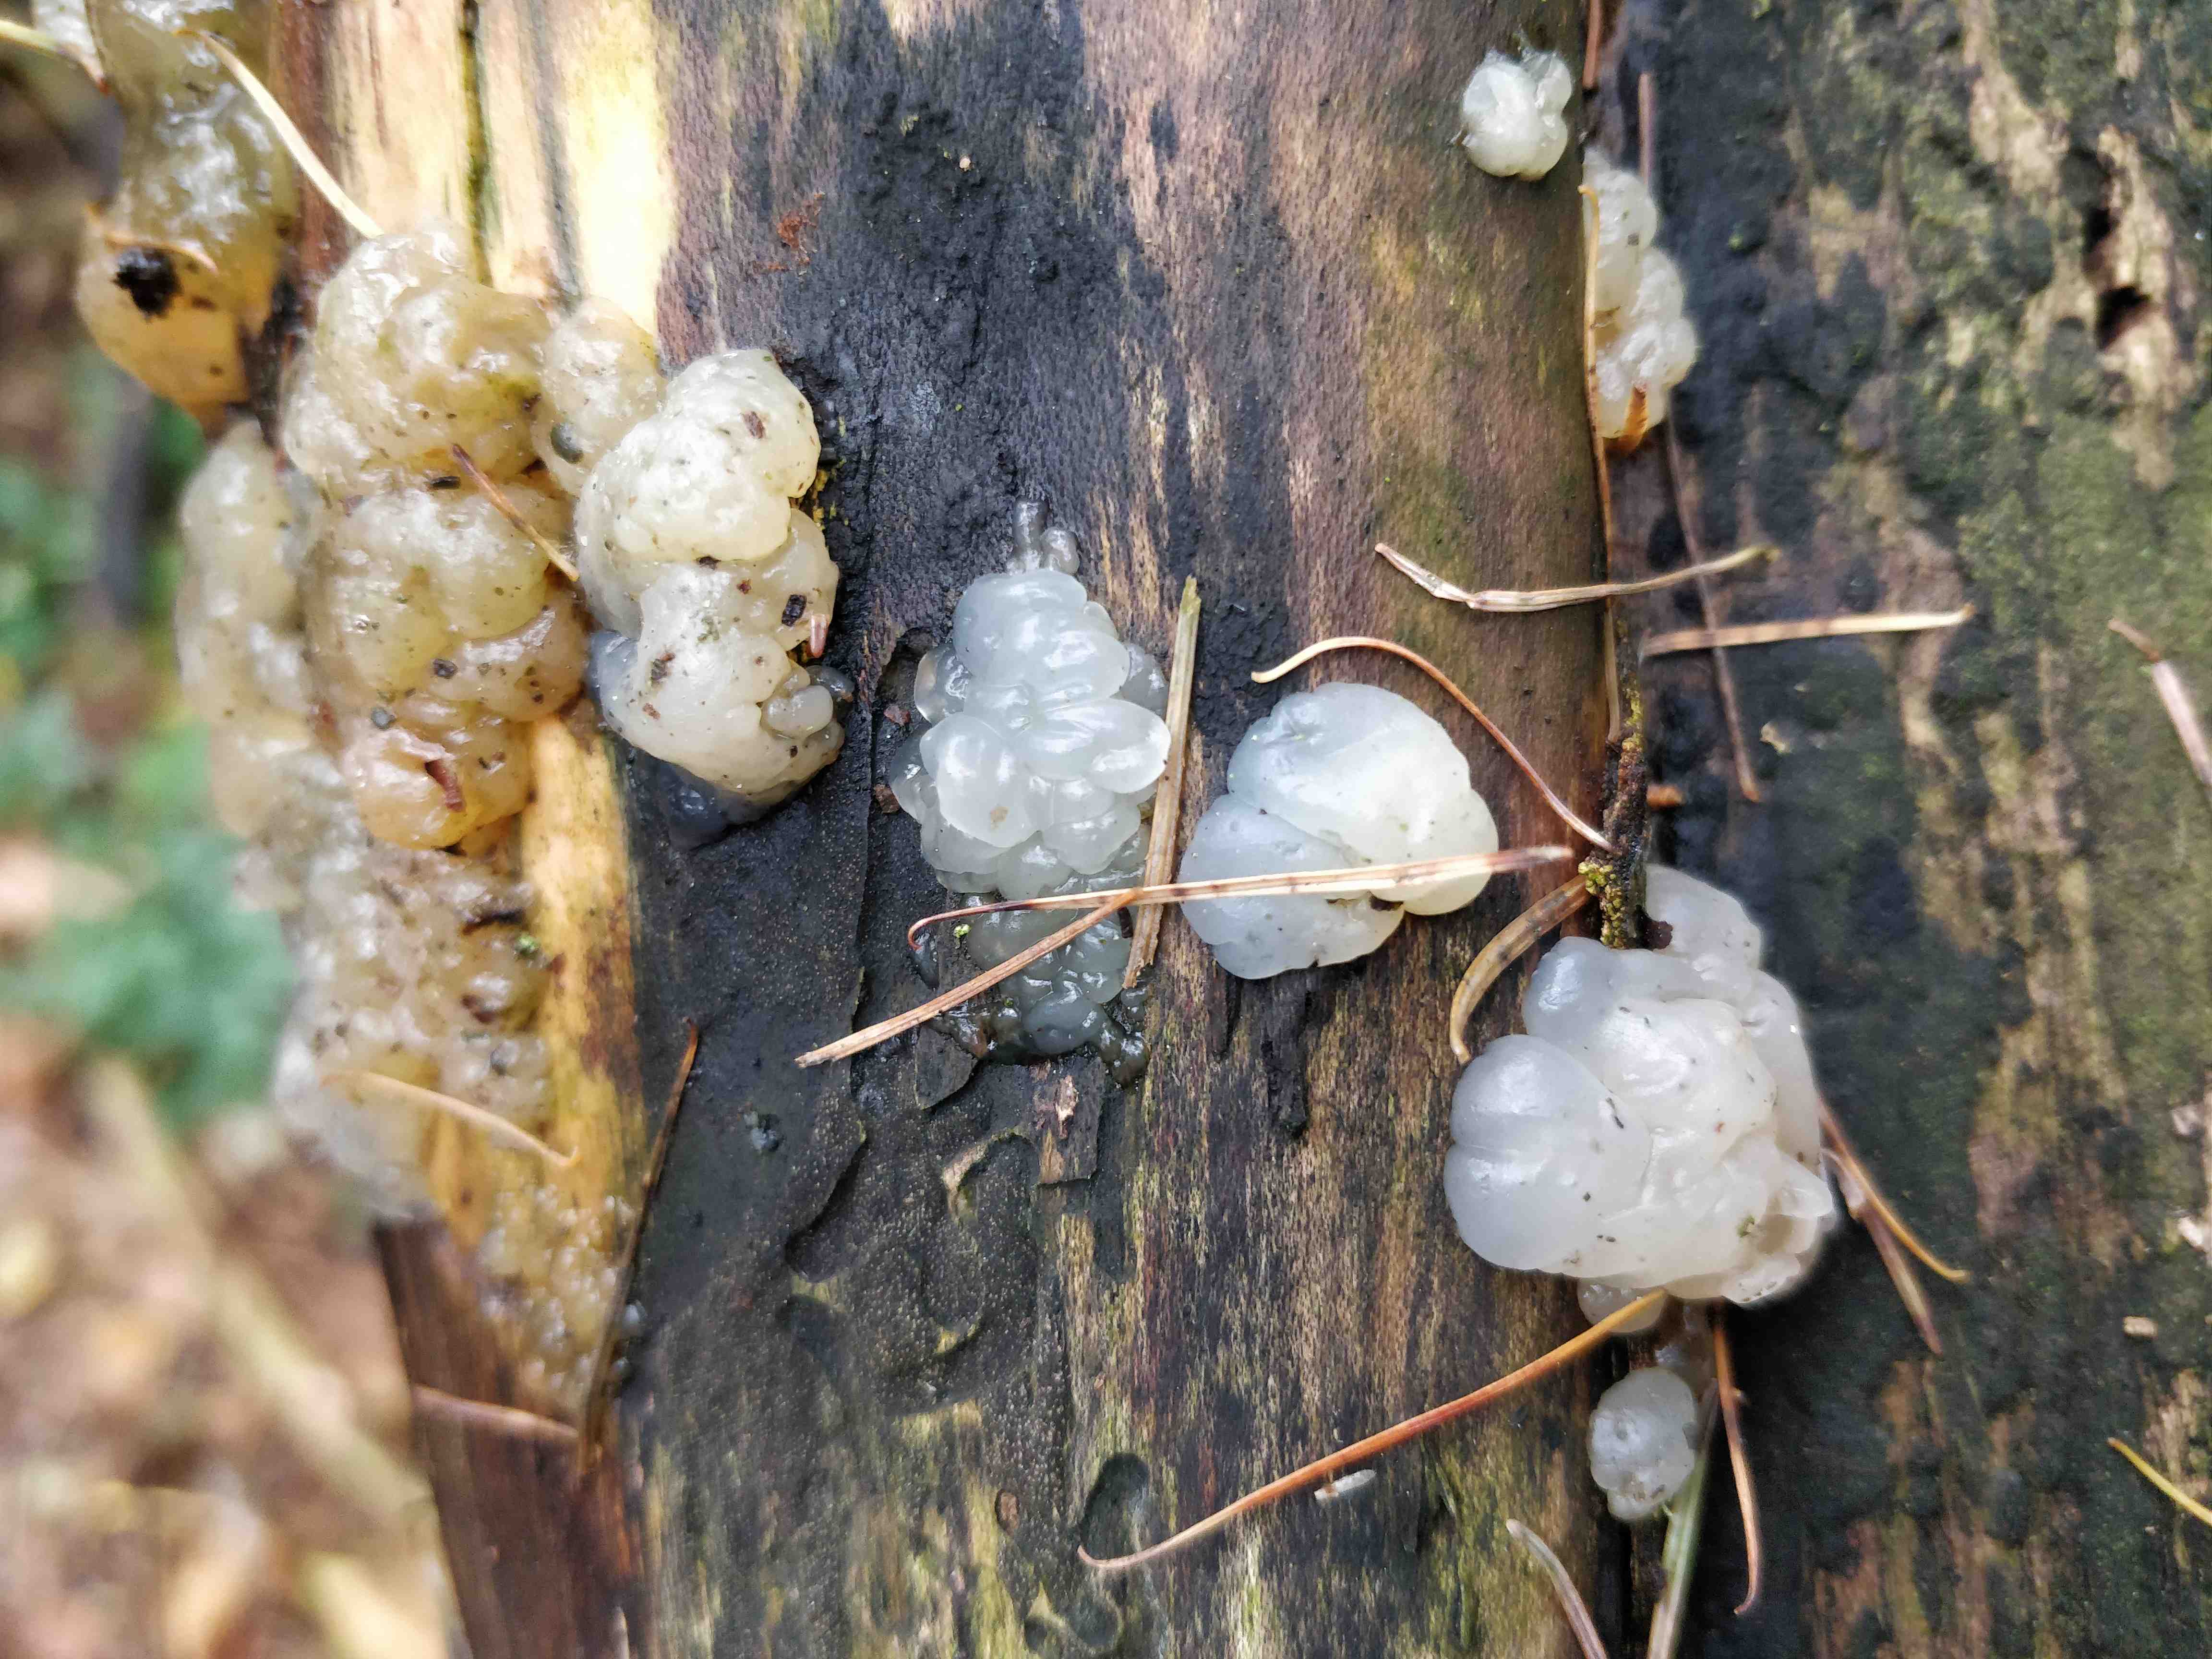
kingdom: Fungi
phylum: Basidiomycota
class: Agaricomycetes
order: Auriculariales
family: Hyaloriaceae
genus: Myxarium
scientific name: Myxarium nucleatum
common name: klar bævretop
